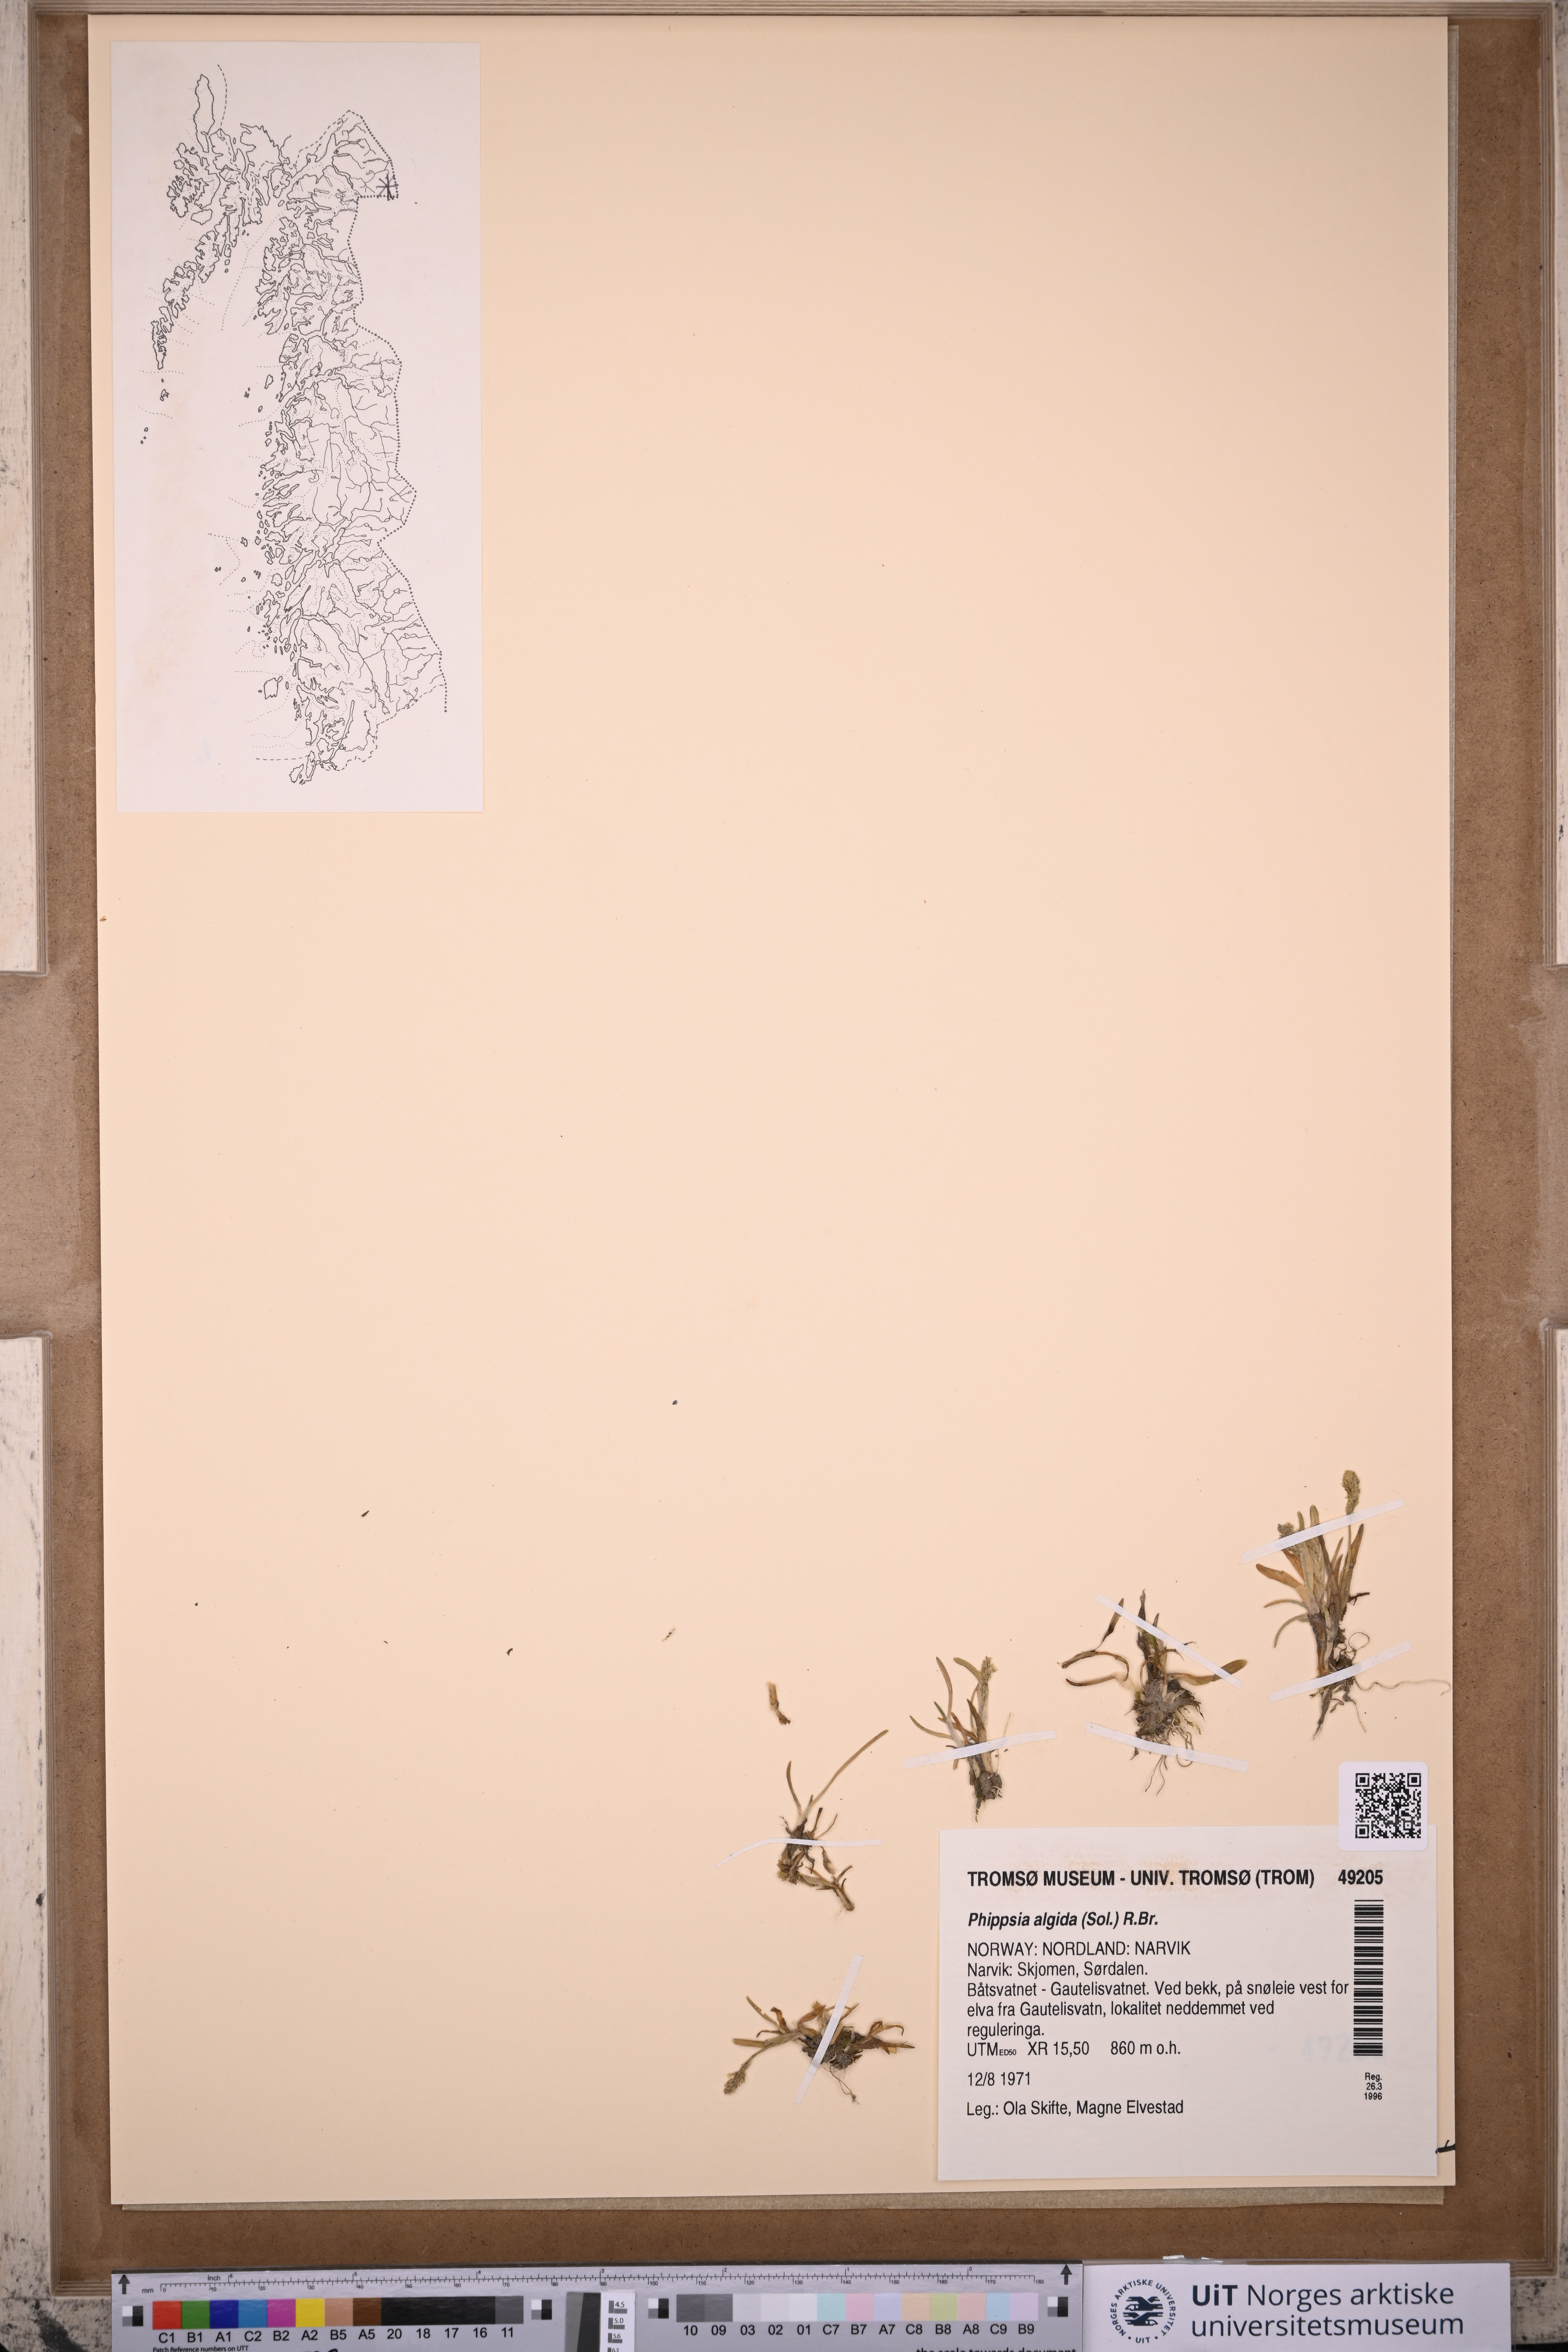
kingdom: Plantae
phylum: Tracheophyta
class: Liliopsida
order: Poales
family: Poaceae
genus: Phippsia
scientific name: Phippsia algida
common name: Ice grass
